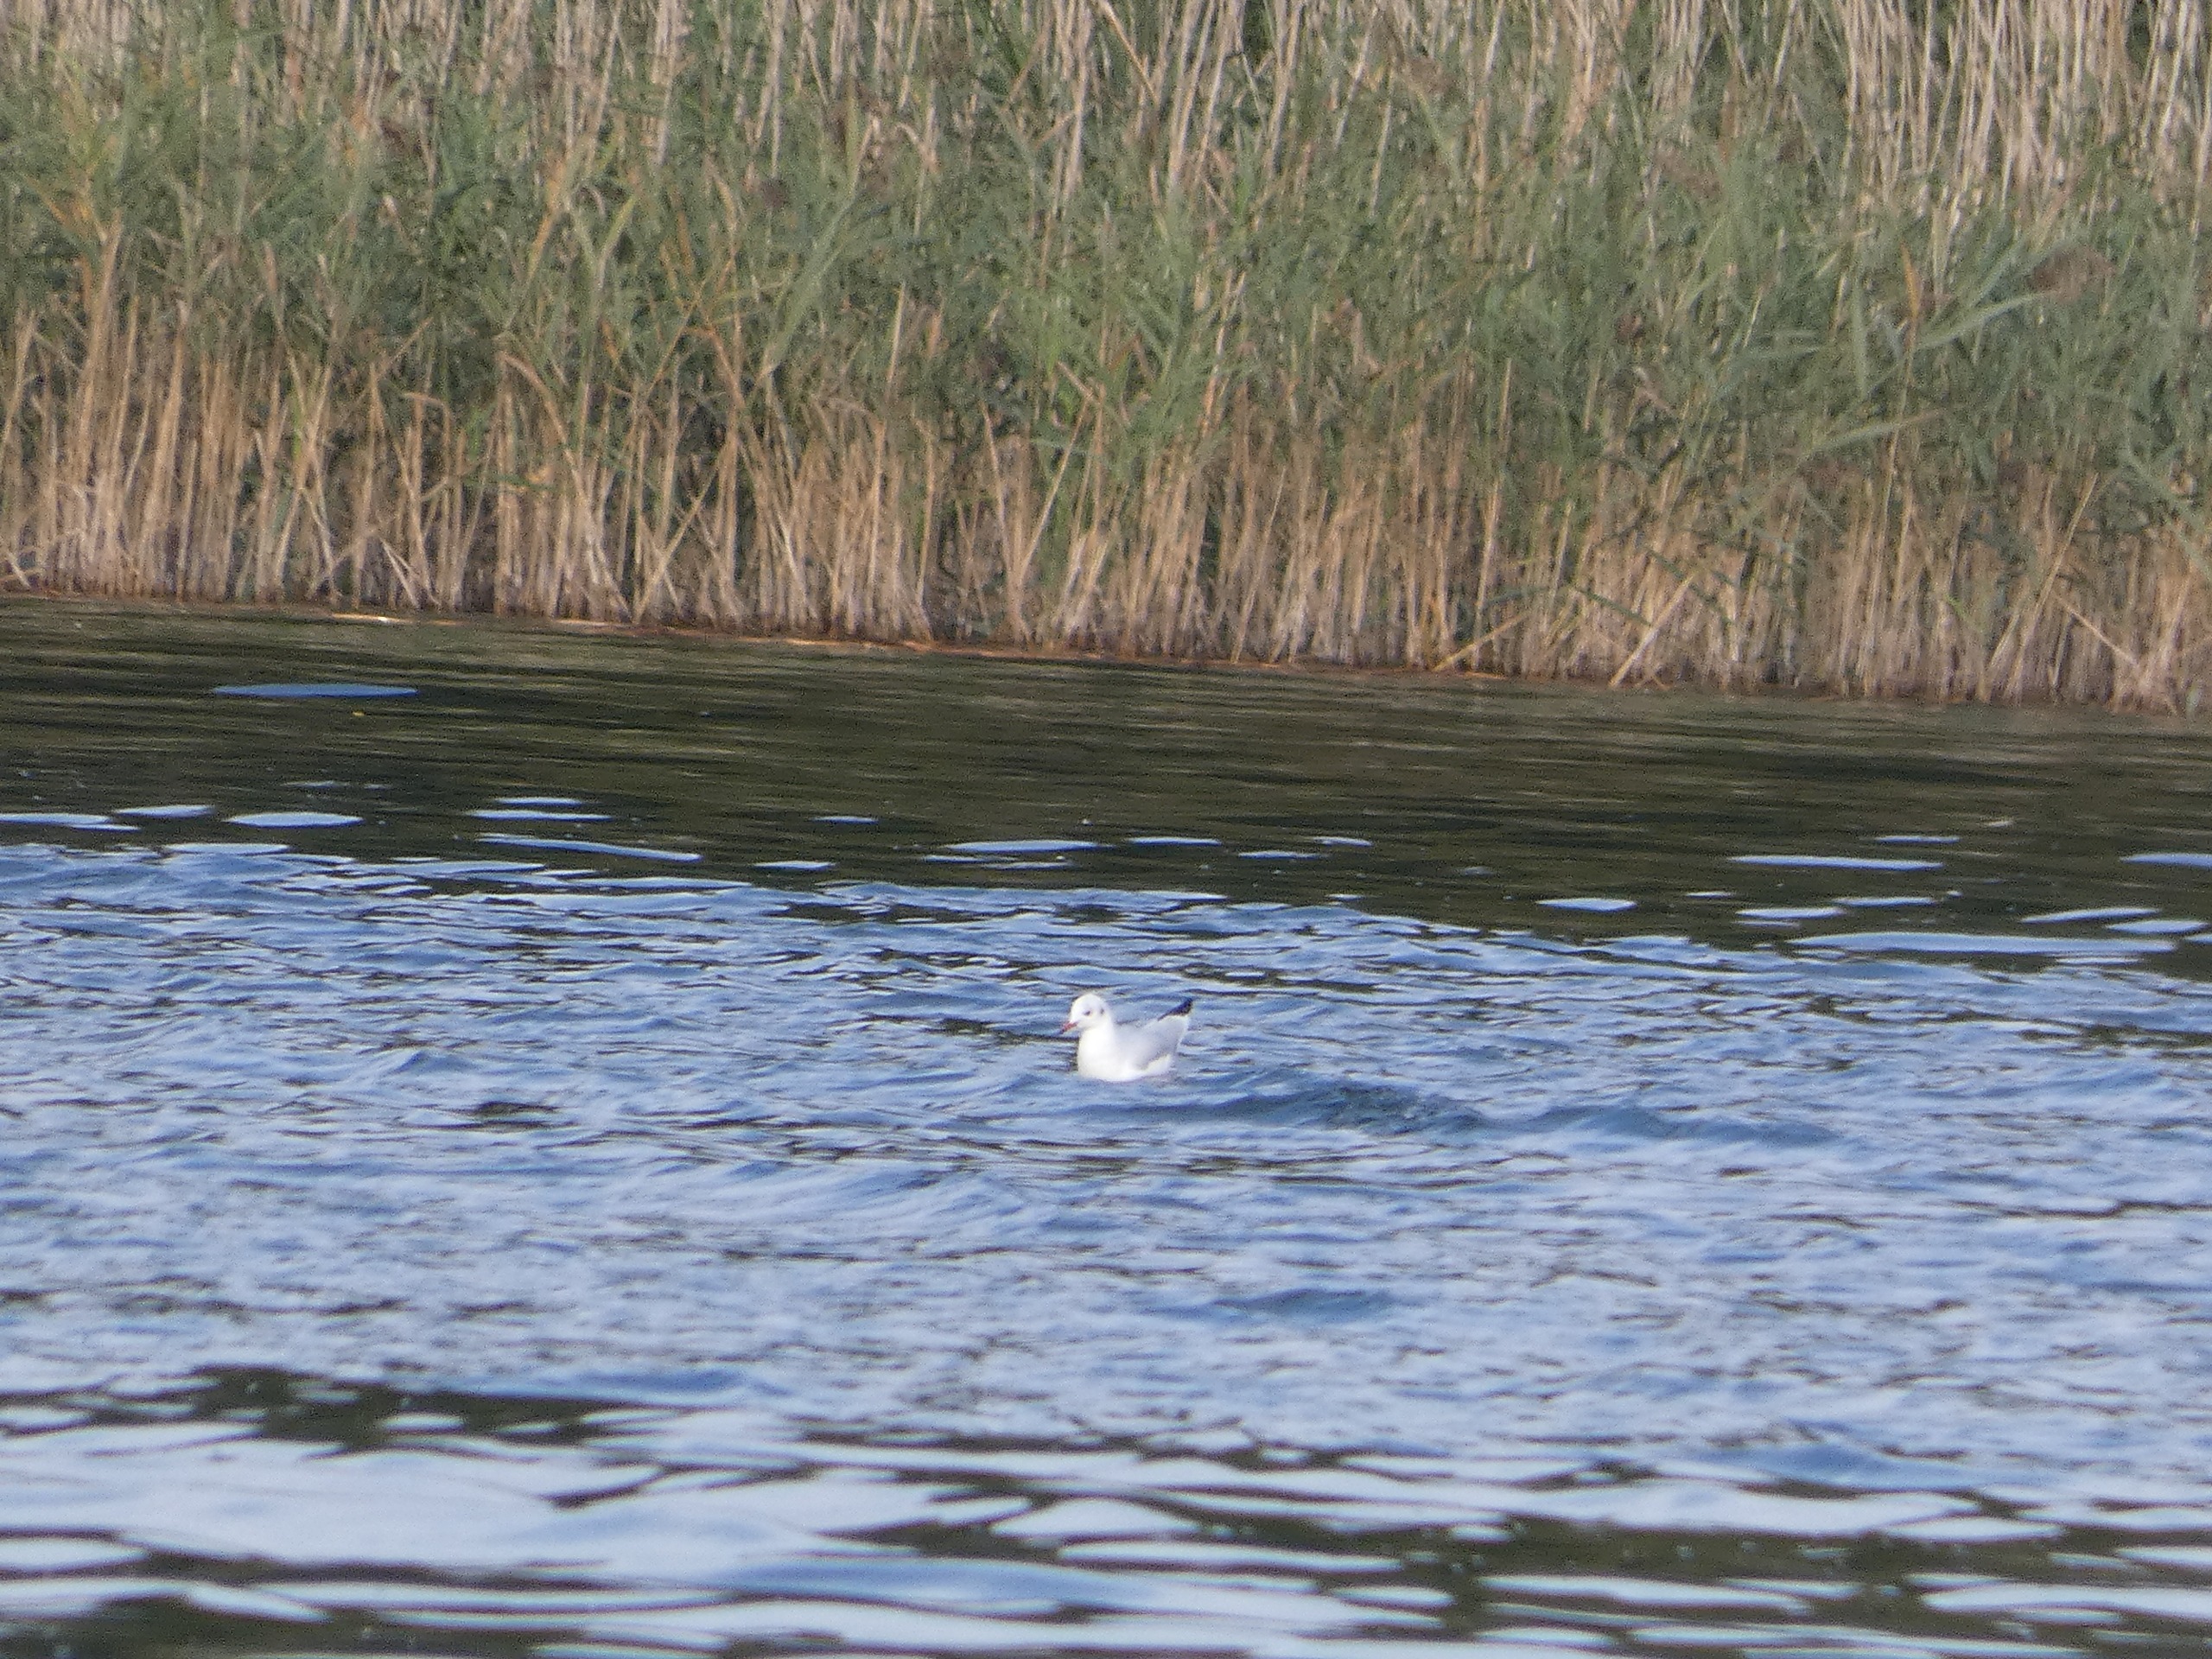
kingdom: Animalia
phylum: Chordata
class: Aves
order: Charadriiformes
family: Laridae
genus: Chroicocephalus
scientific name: Chroicocephalus ridibundus
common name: Hættemåge
